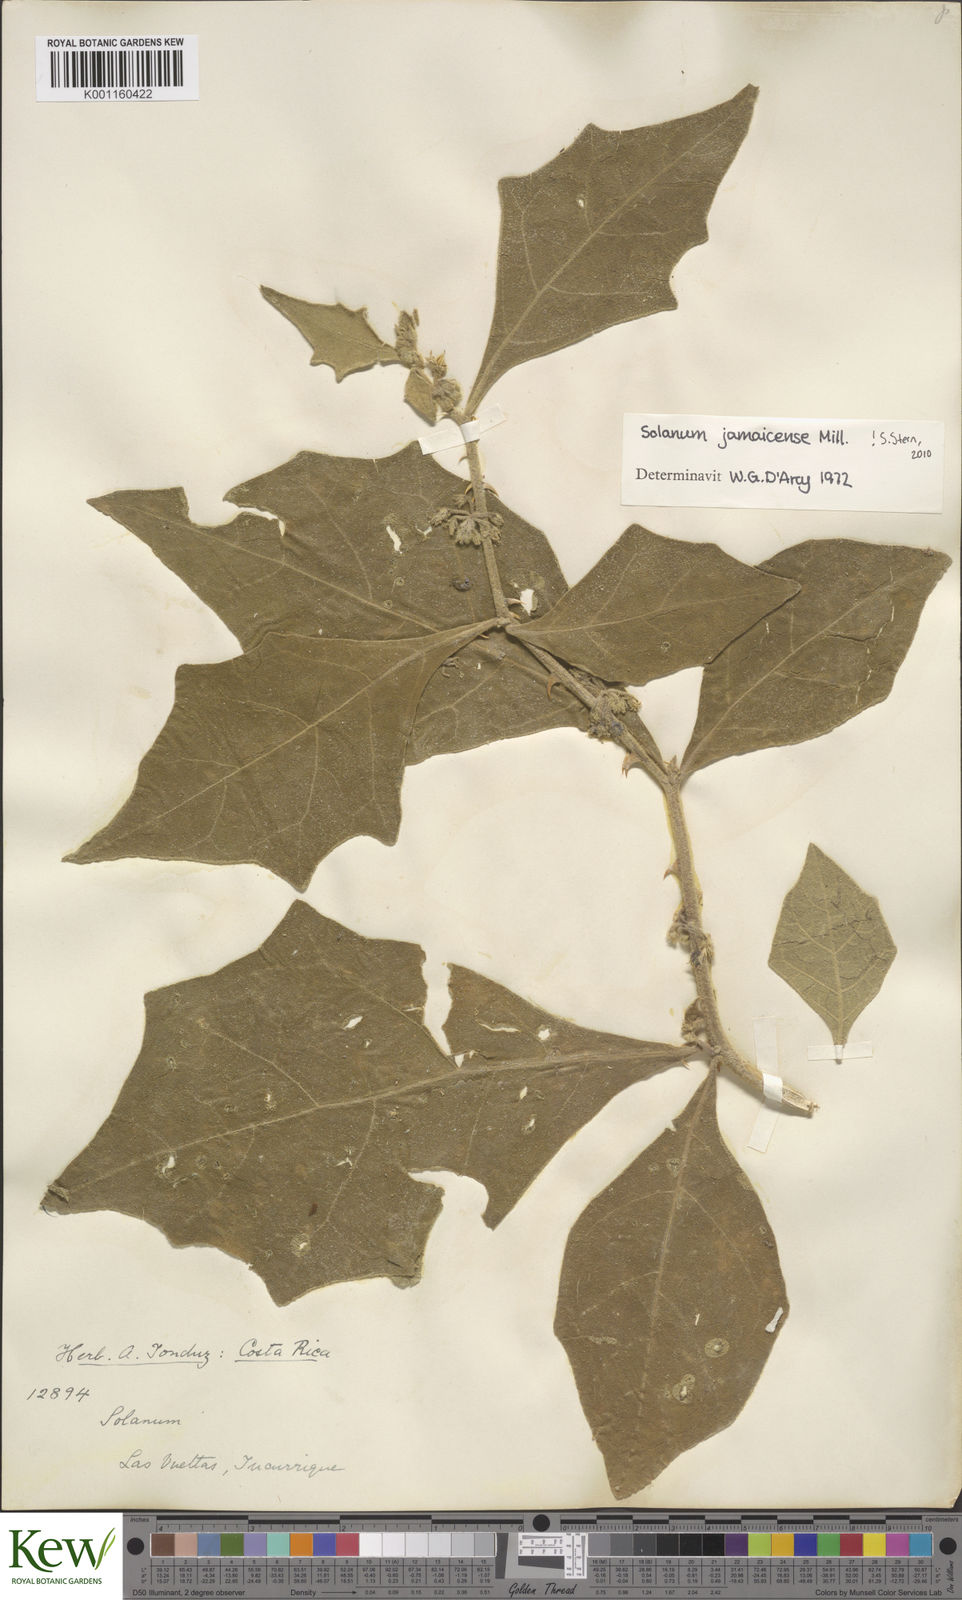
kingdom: Plantae
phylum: Tracheophyta
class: Magnoliopsida
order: Solanales
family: Solanaceae
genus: Solanum
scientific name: Solanum jamaicense
